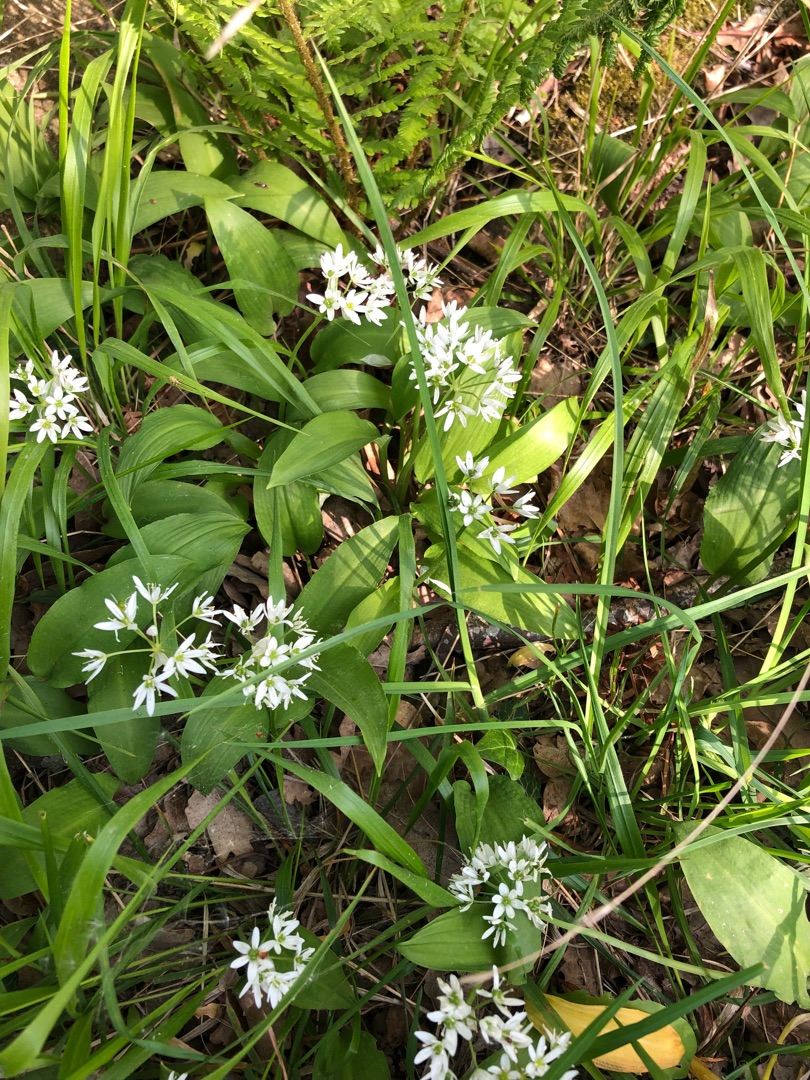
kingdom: Plantae
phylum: Tracheophyta
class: Liliopsida
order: Asparagales
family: Amaryllidaceae
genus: Allium
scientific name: Allium ursinum
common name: Rams-løg
